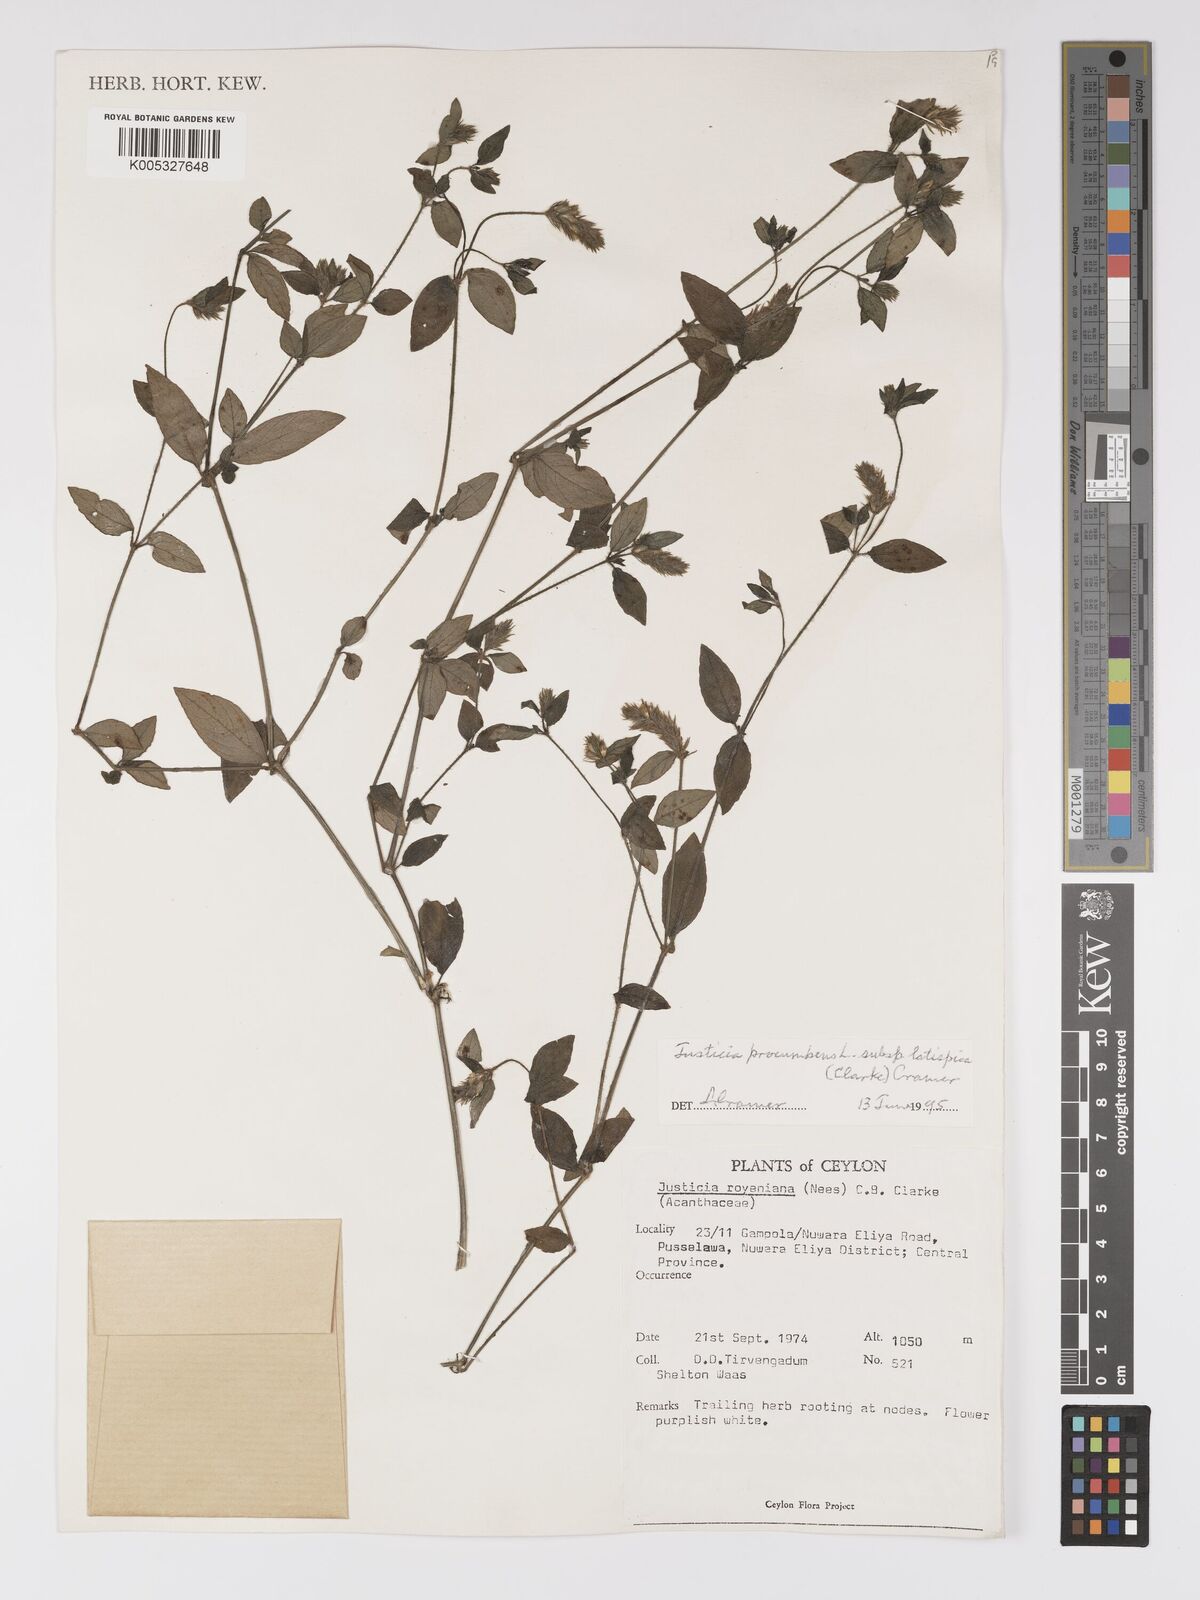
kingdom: Plantae
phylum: Tracheophyta
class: Magnoliopsida
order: Lamiales
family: Acanthaceae
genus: Rostellularia
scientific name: Rostellularia latispica
